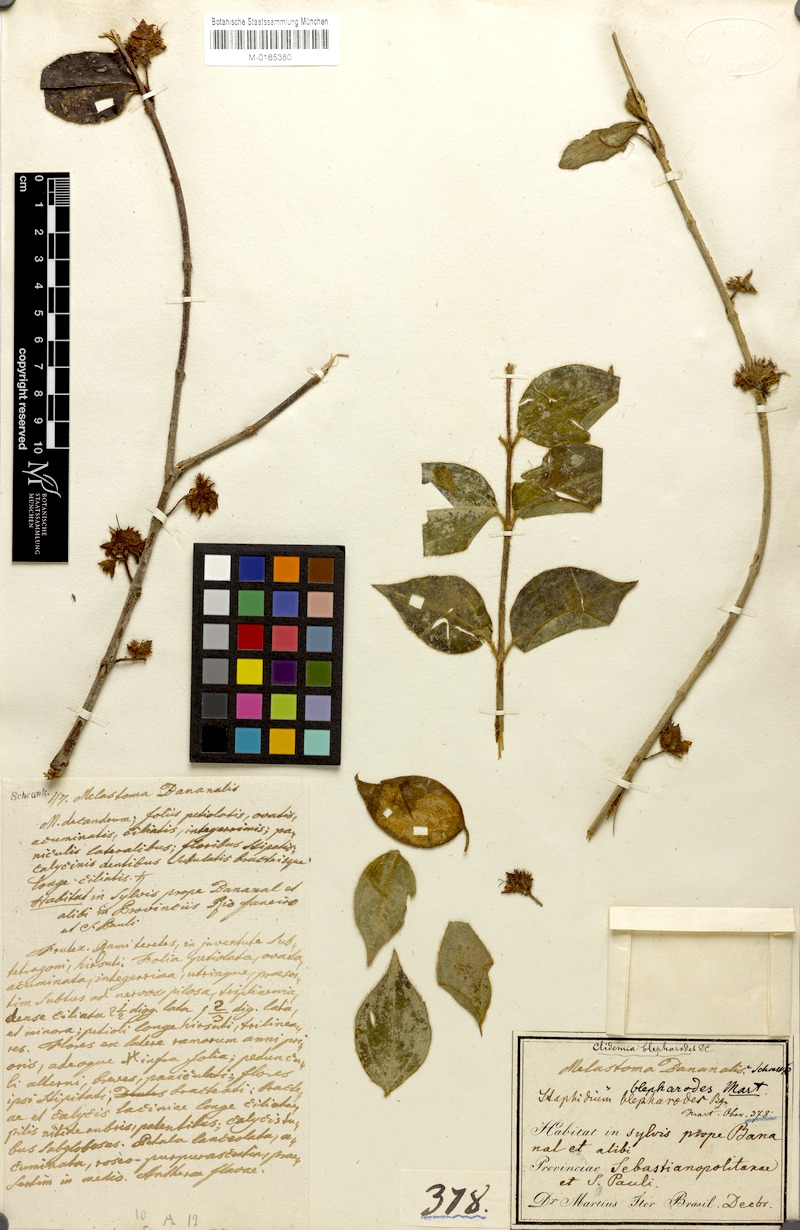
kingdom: Plantae
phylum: Tracheophyta
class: Magnoliopsida
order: Myrtales
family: Melastomataceae
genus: Miconia
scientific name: Miconia blepharodes
